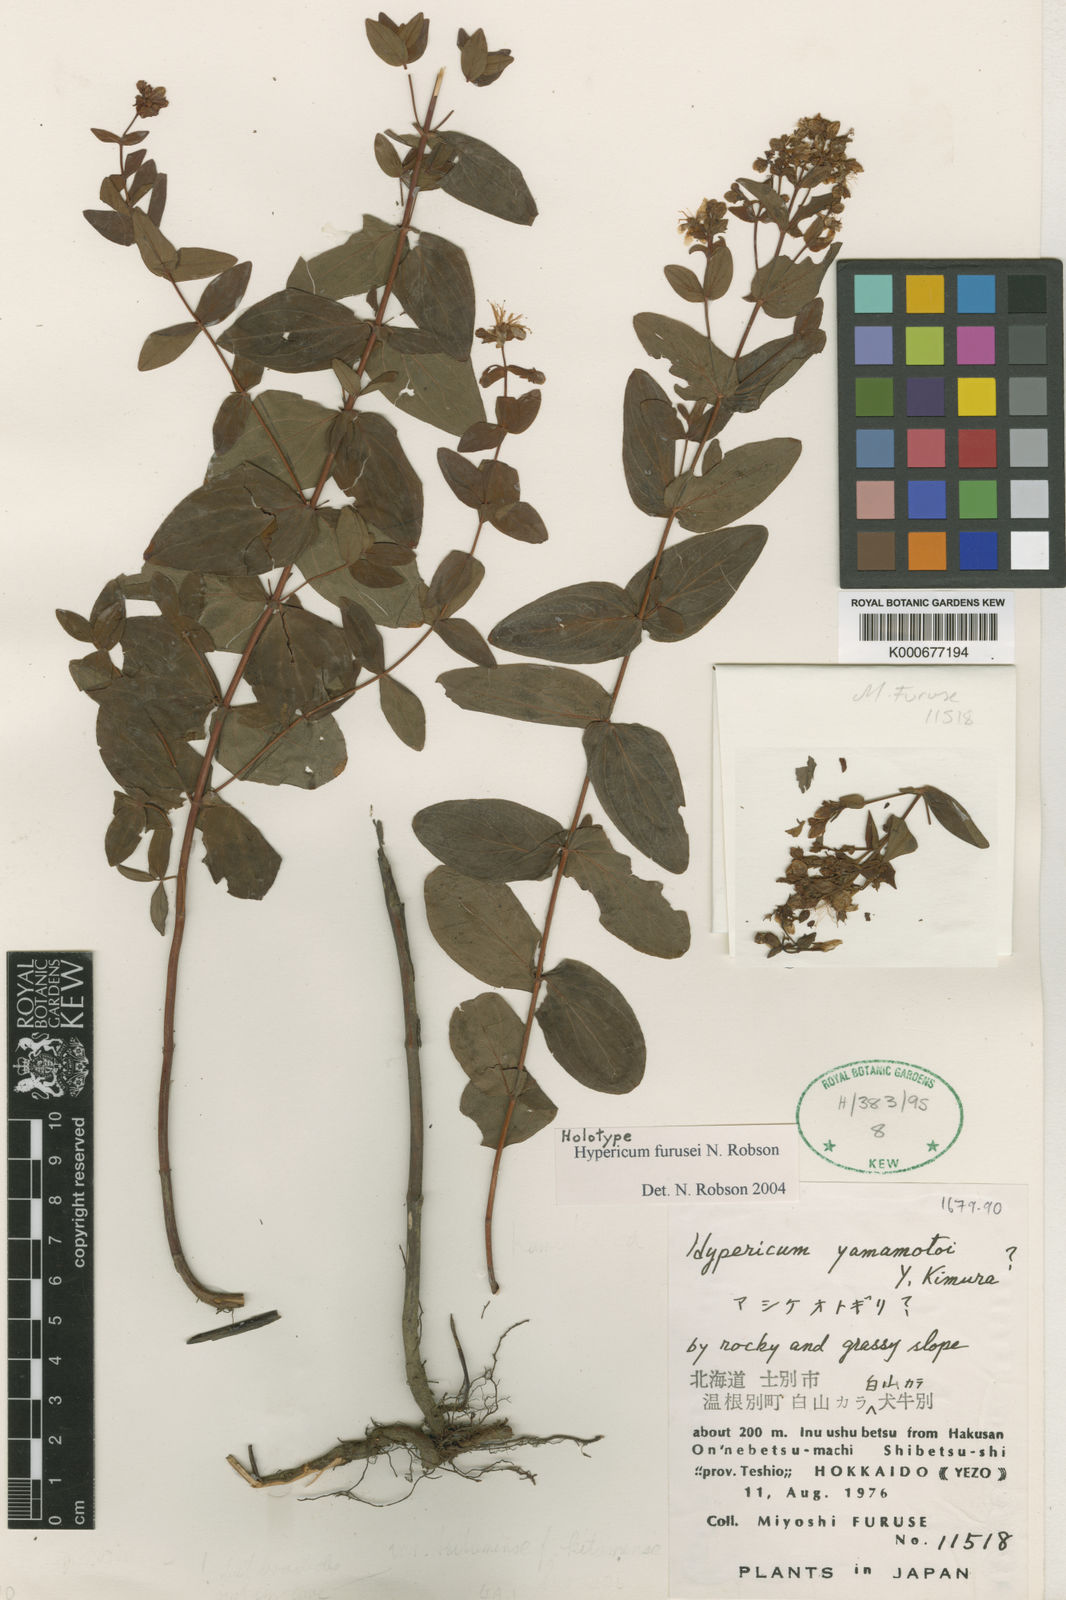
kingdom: Plantae
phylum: Tracheophyta
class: Magnoliopsida
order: Malpighiales
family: Hypericaceae
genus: Hypericum
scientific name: Hypericum yamamotoi
